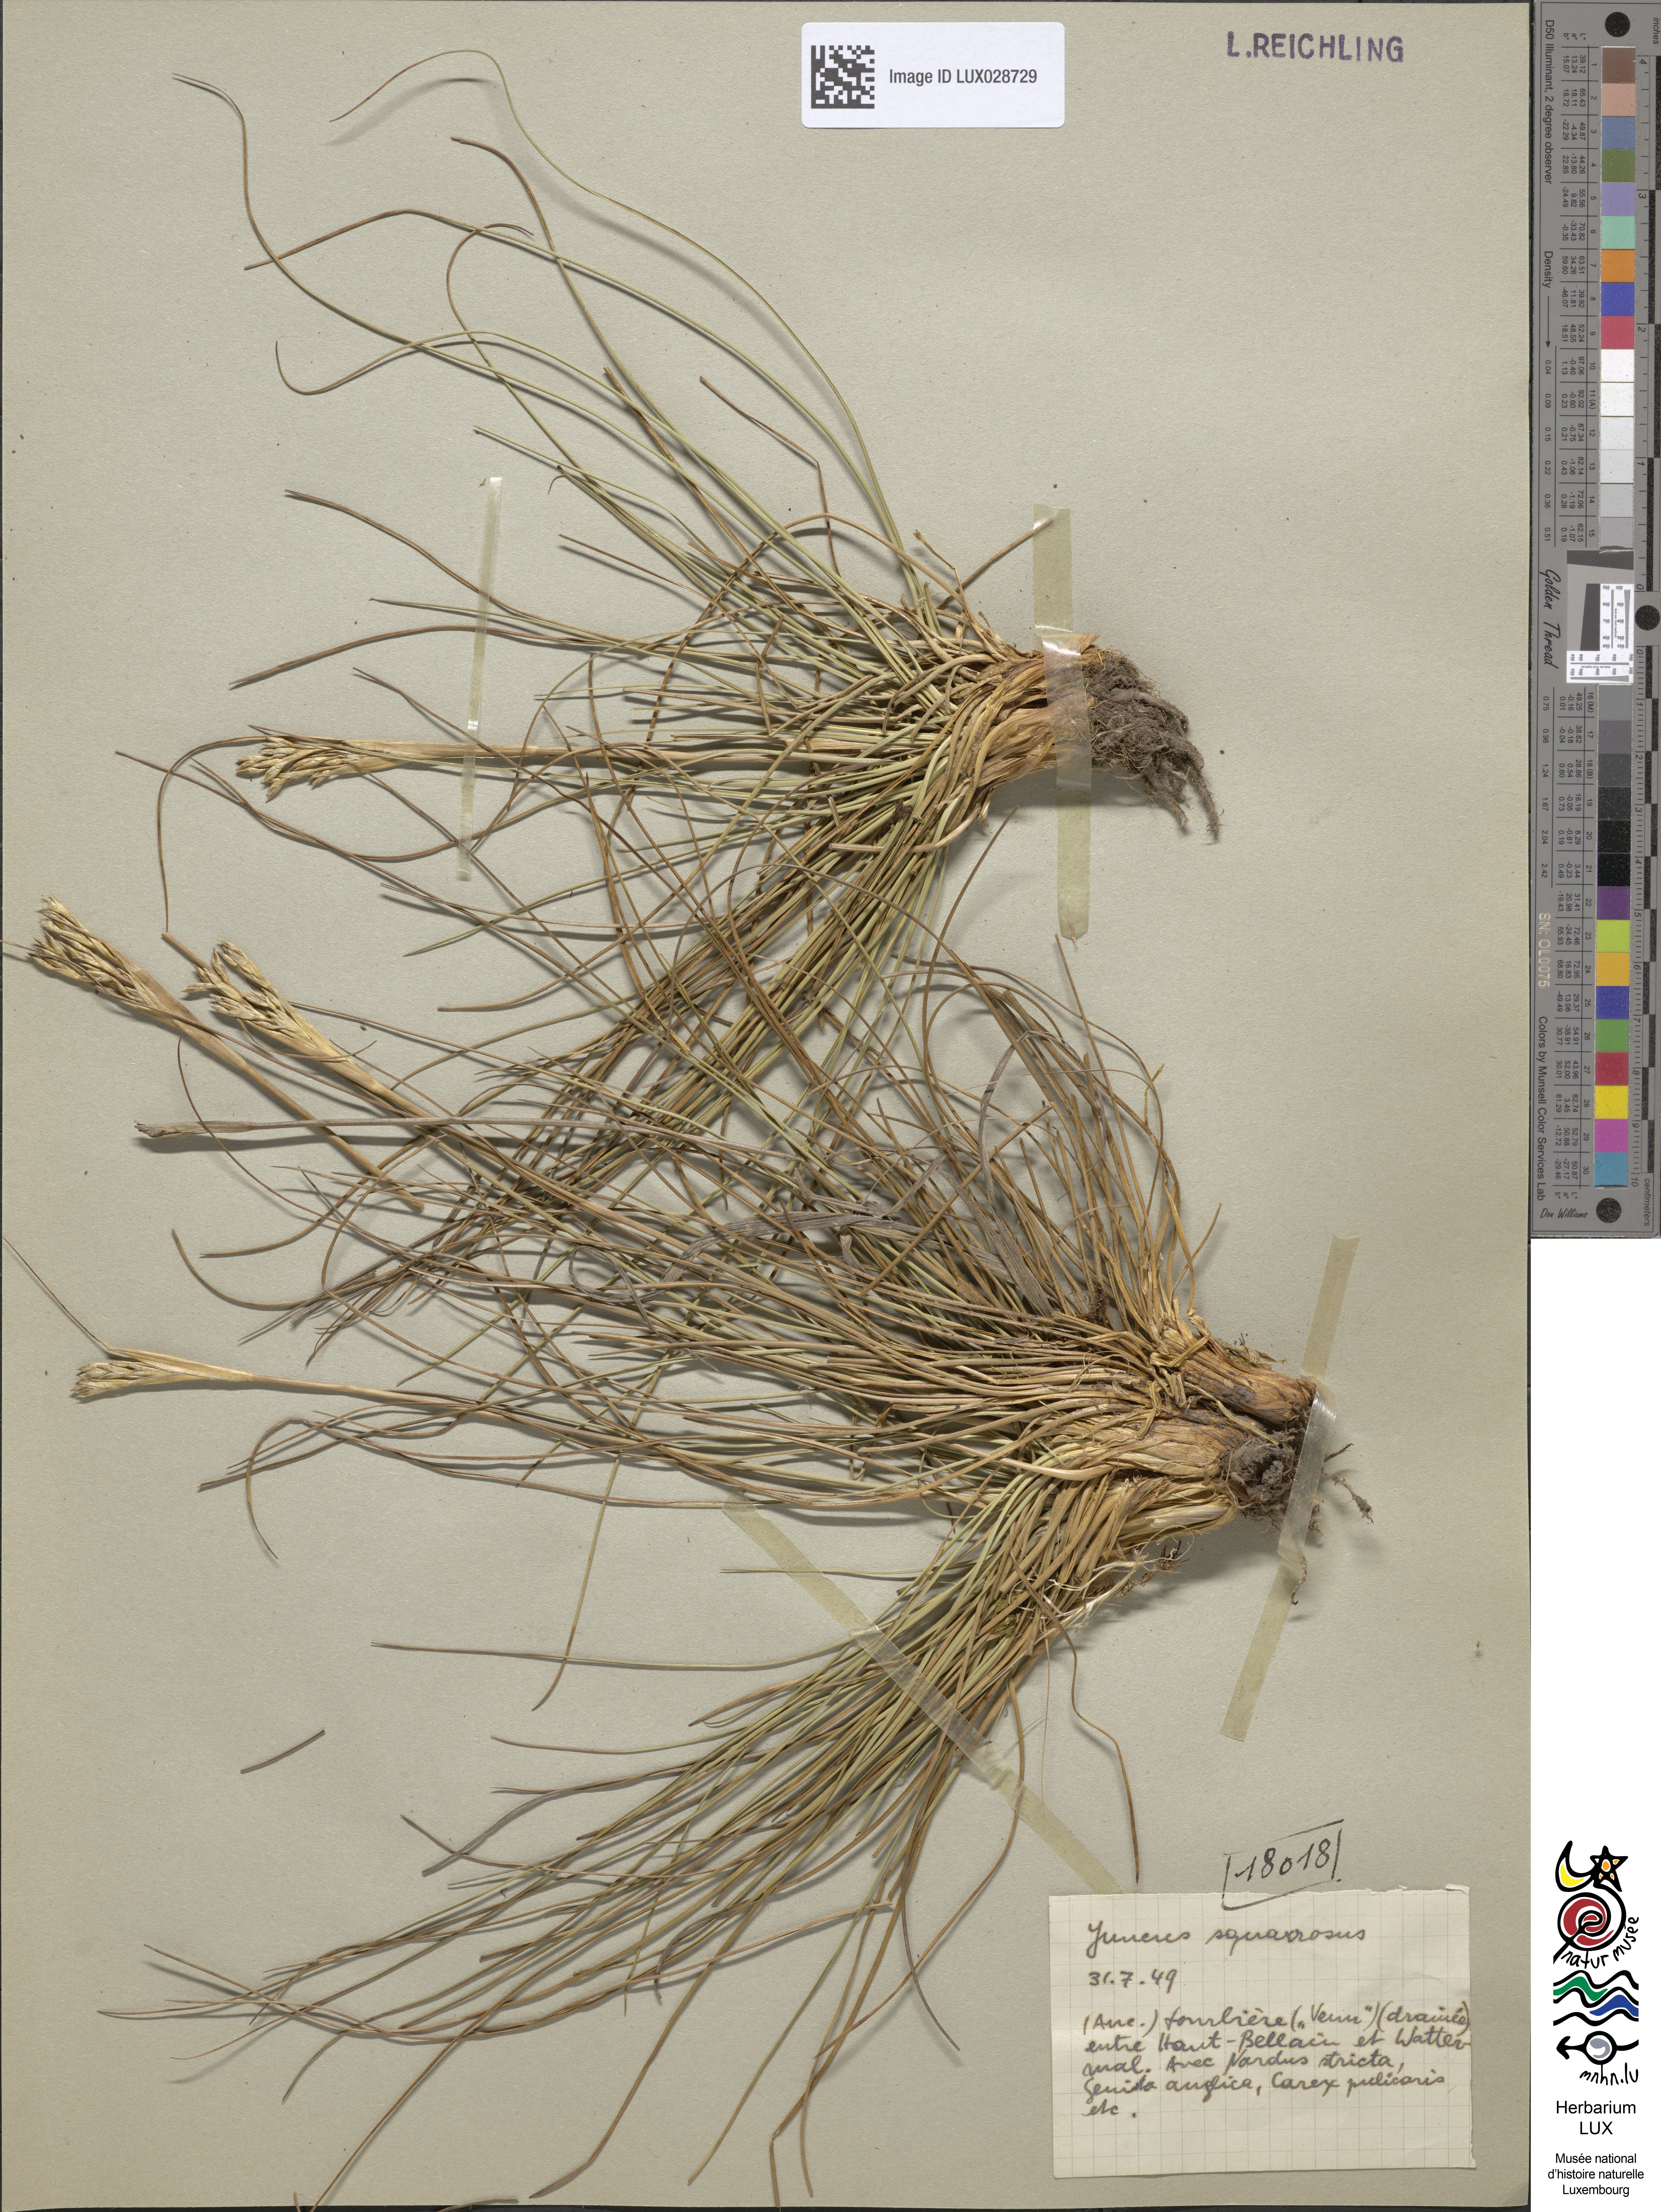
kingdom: Plantae
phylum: Tracheophyta
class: Liliopsida
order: Poales
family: Juncaceae
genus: Juncus
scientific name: Juncus squarrosus
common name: Heath rush
